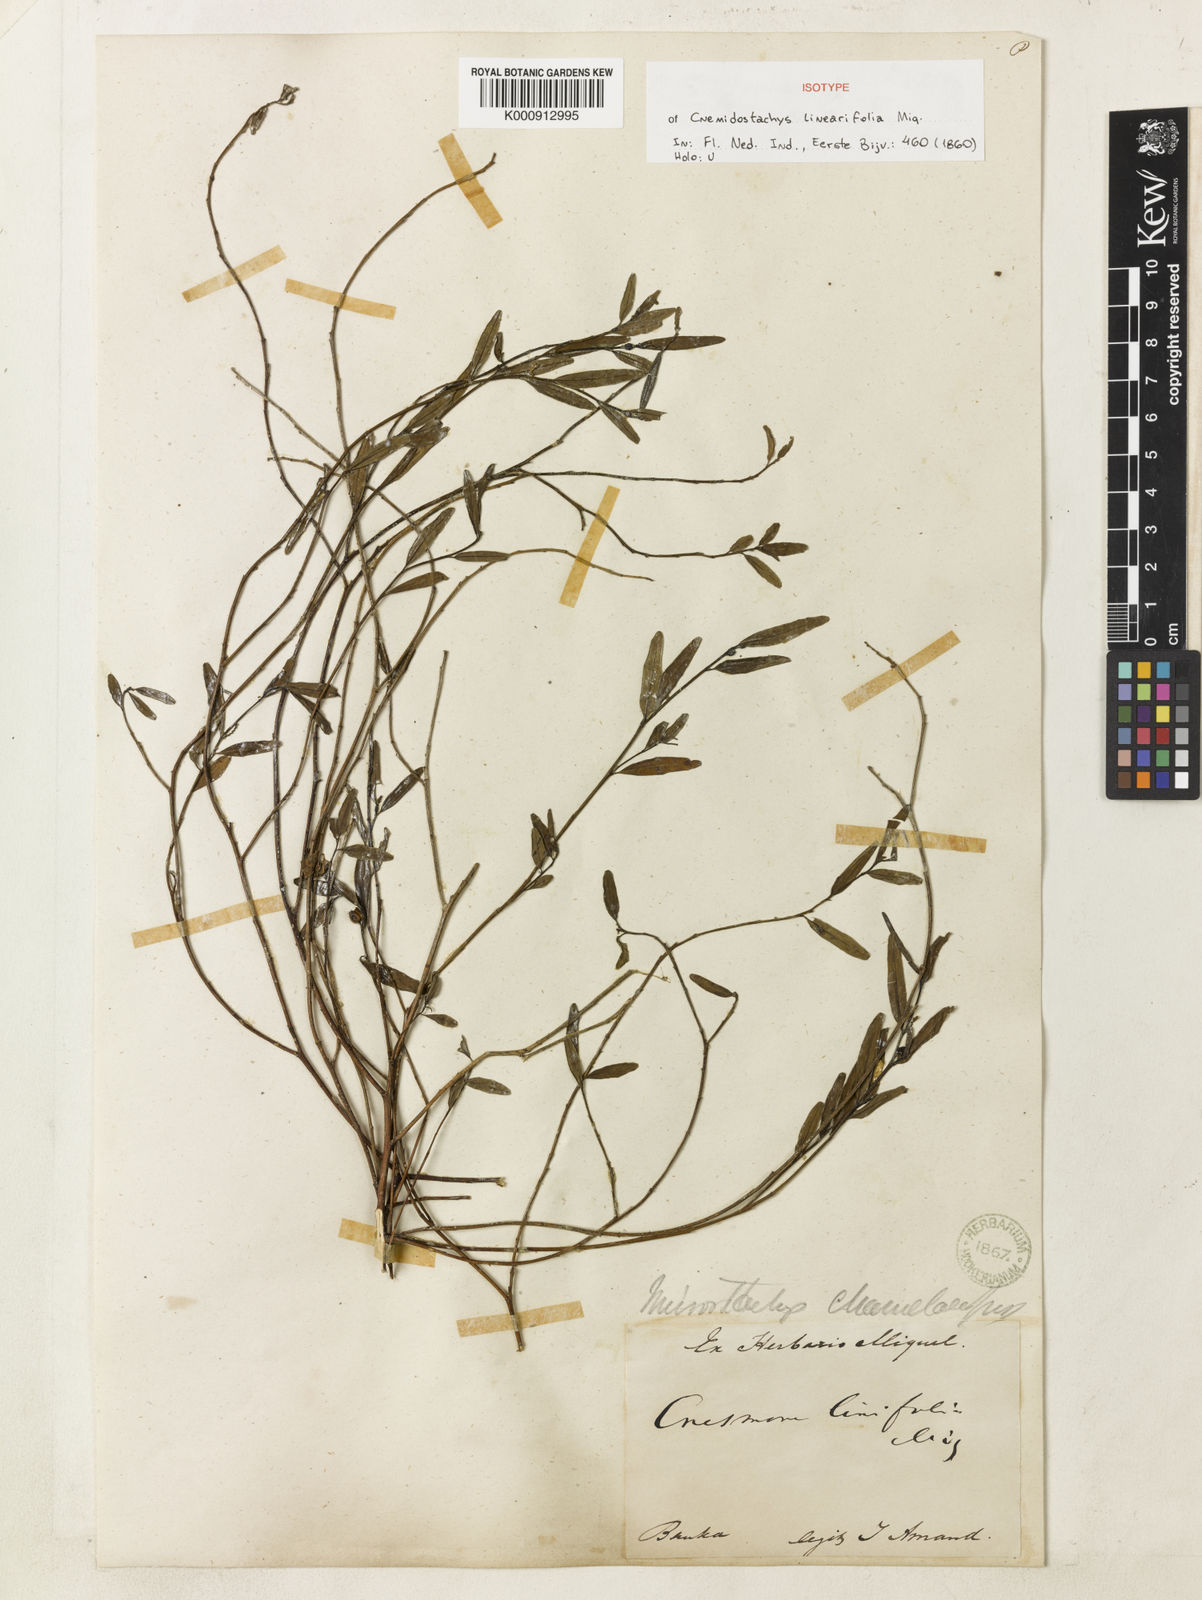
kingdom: Plantae
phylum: Tracheophyta
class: Magnoliopsida
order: Malpighiales
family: Euphorbiaceae
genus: Microstachys
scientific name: Microstachys
